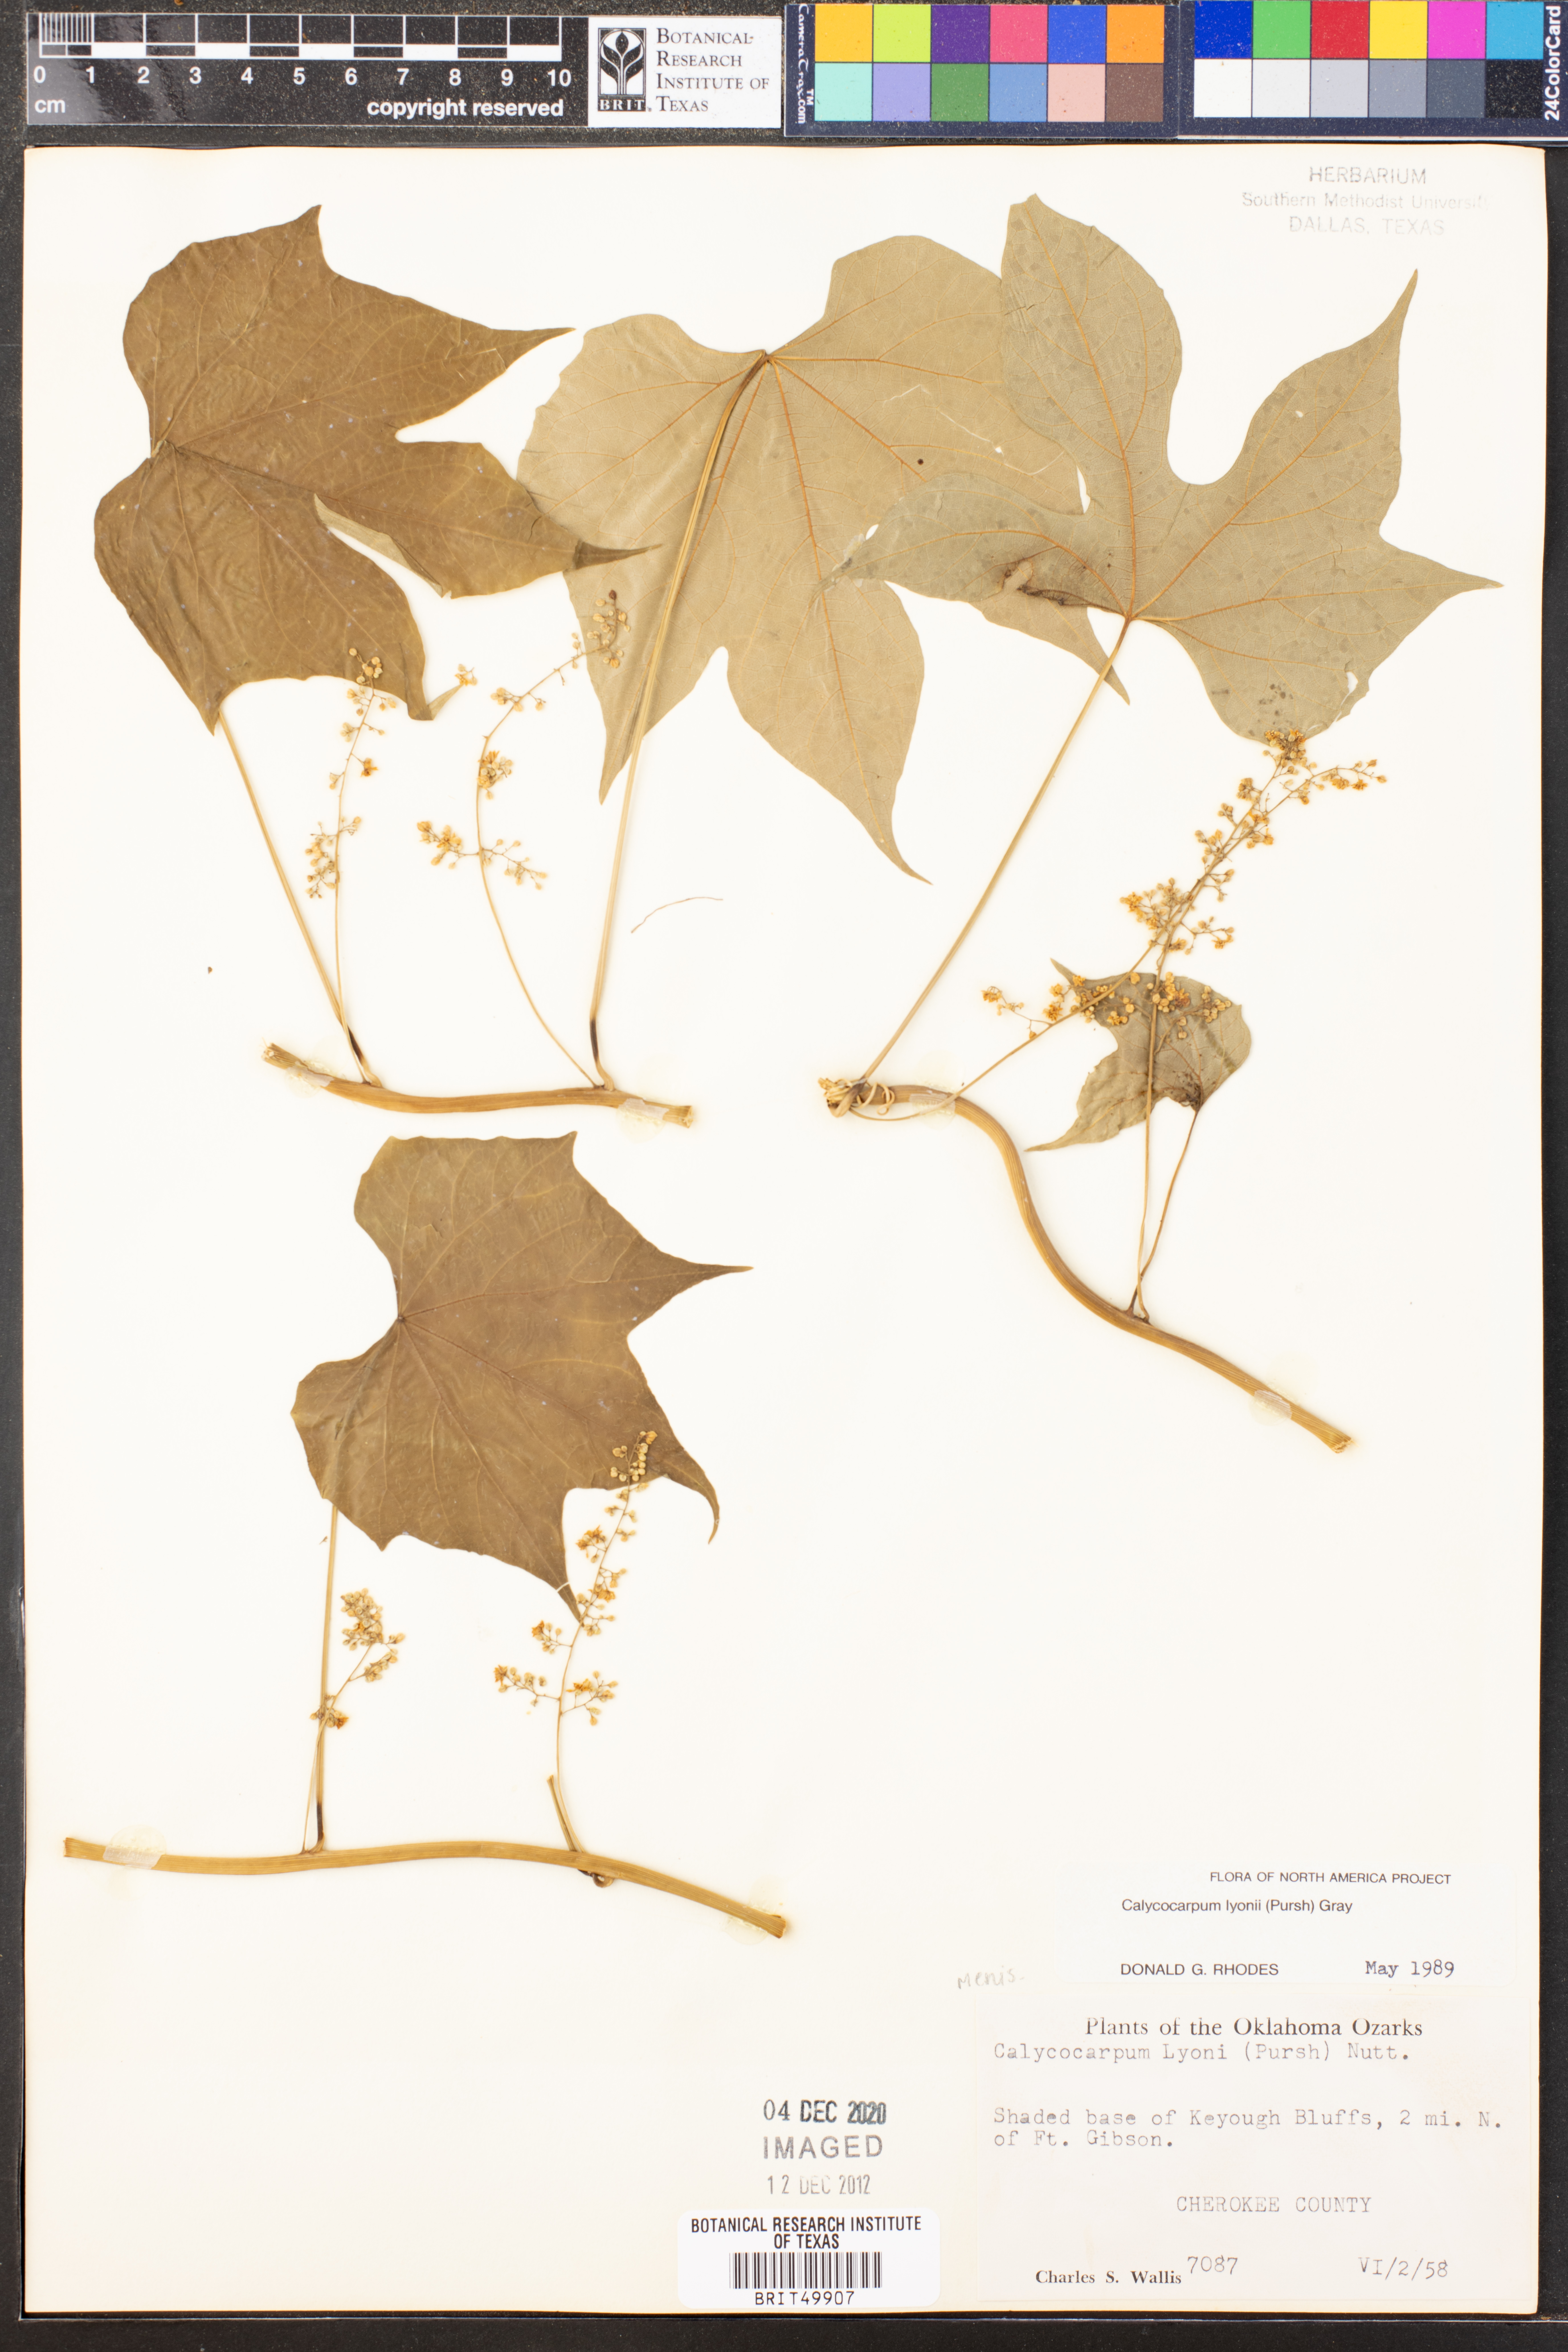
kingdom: Plantae
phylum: Tracheophyta
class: Magnoliopsida
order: Ranunculales
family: Menispermaceae
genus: Calycocarpum
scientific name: Calycocarpum lyonii
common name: Cupseed
